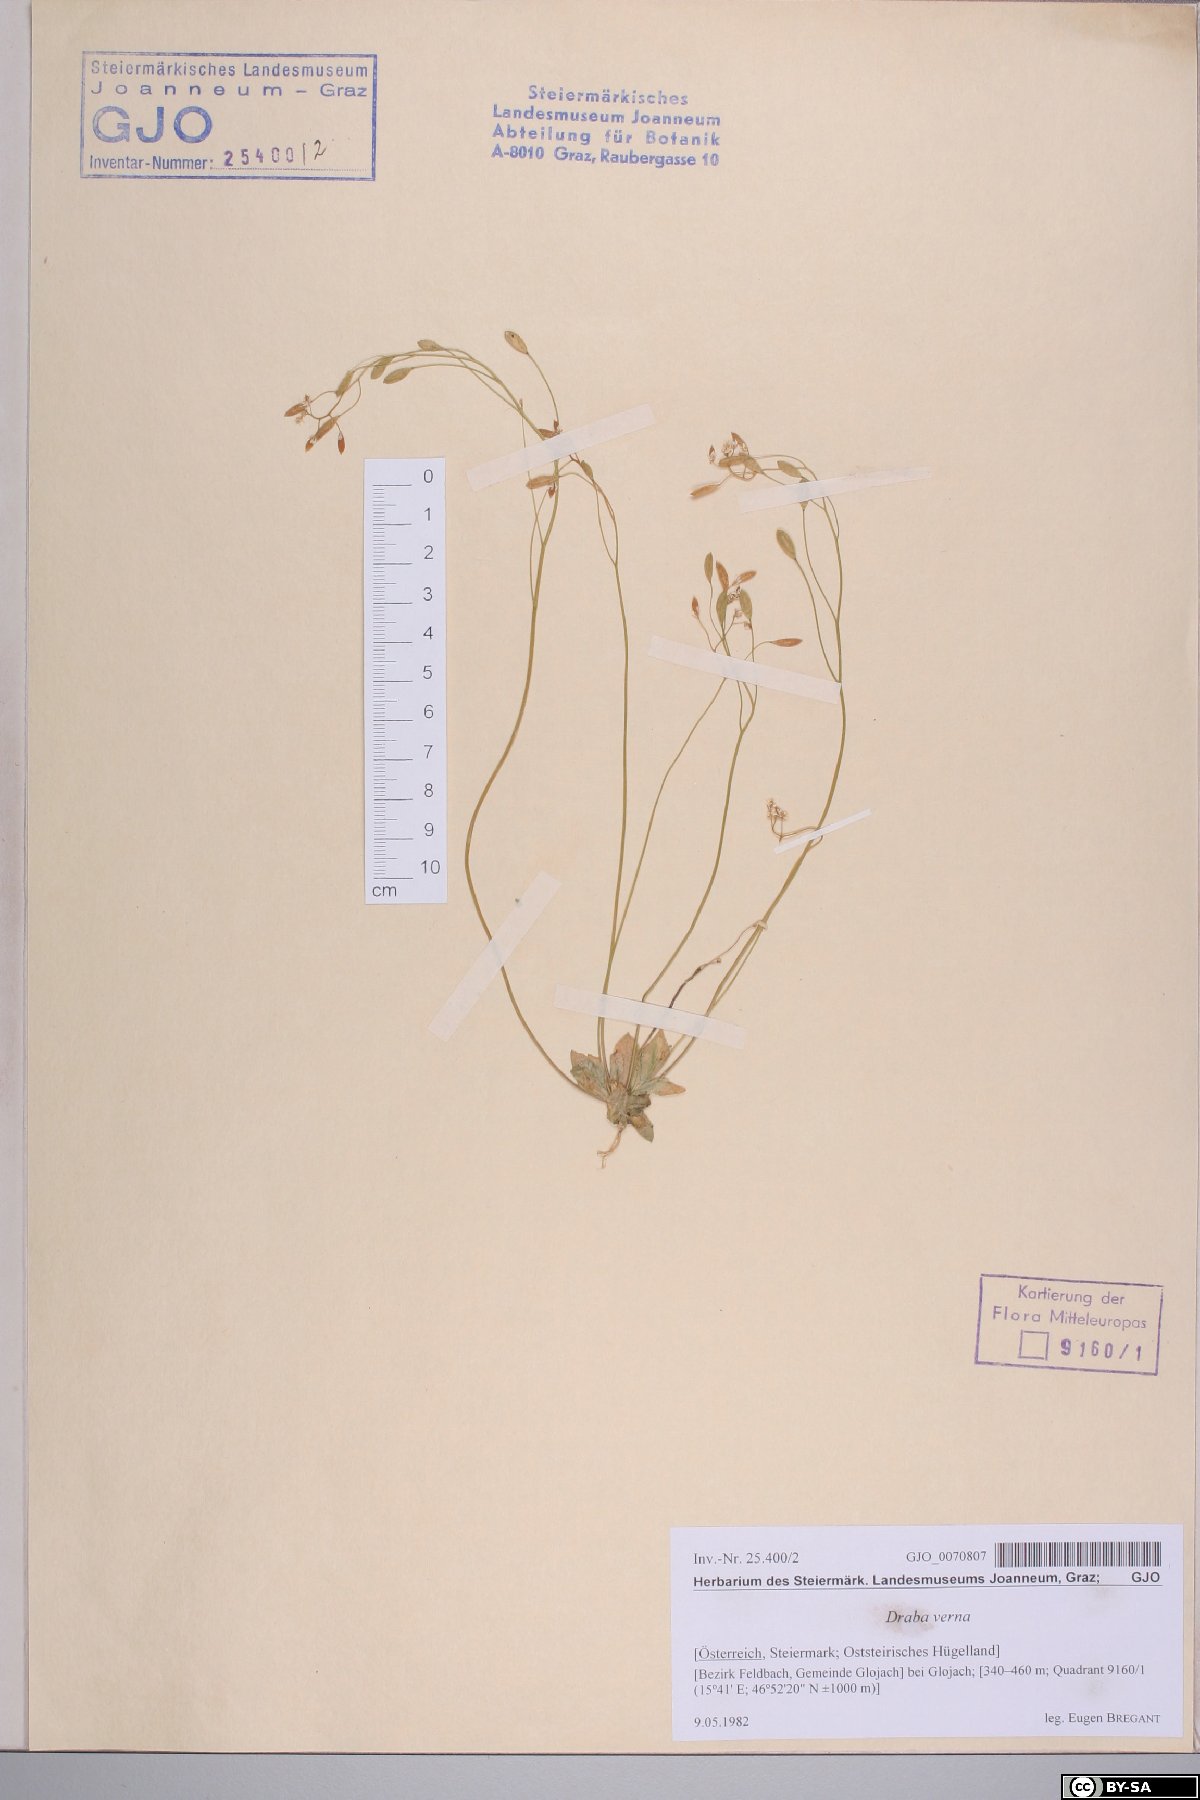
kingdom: Plantae
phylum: Tracheophyta
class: Magnoliopsida
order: Brassicales
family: Brassicaceae
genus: Draba
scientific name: Draba verna
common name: Spring draba
